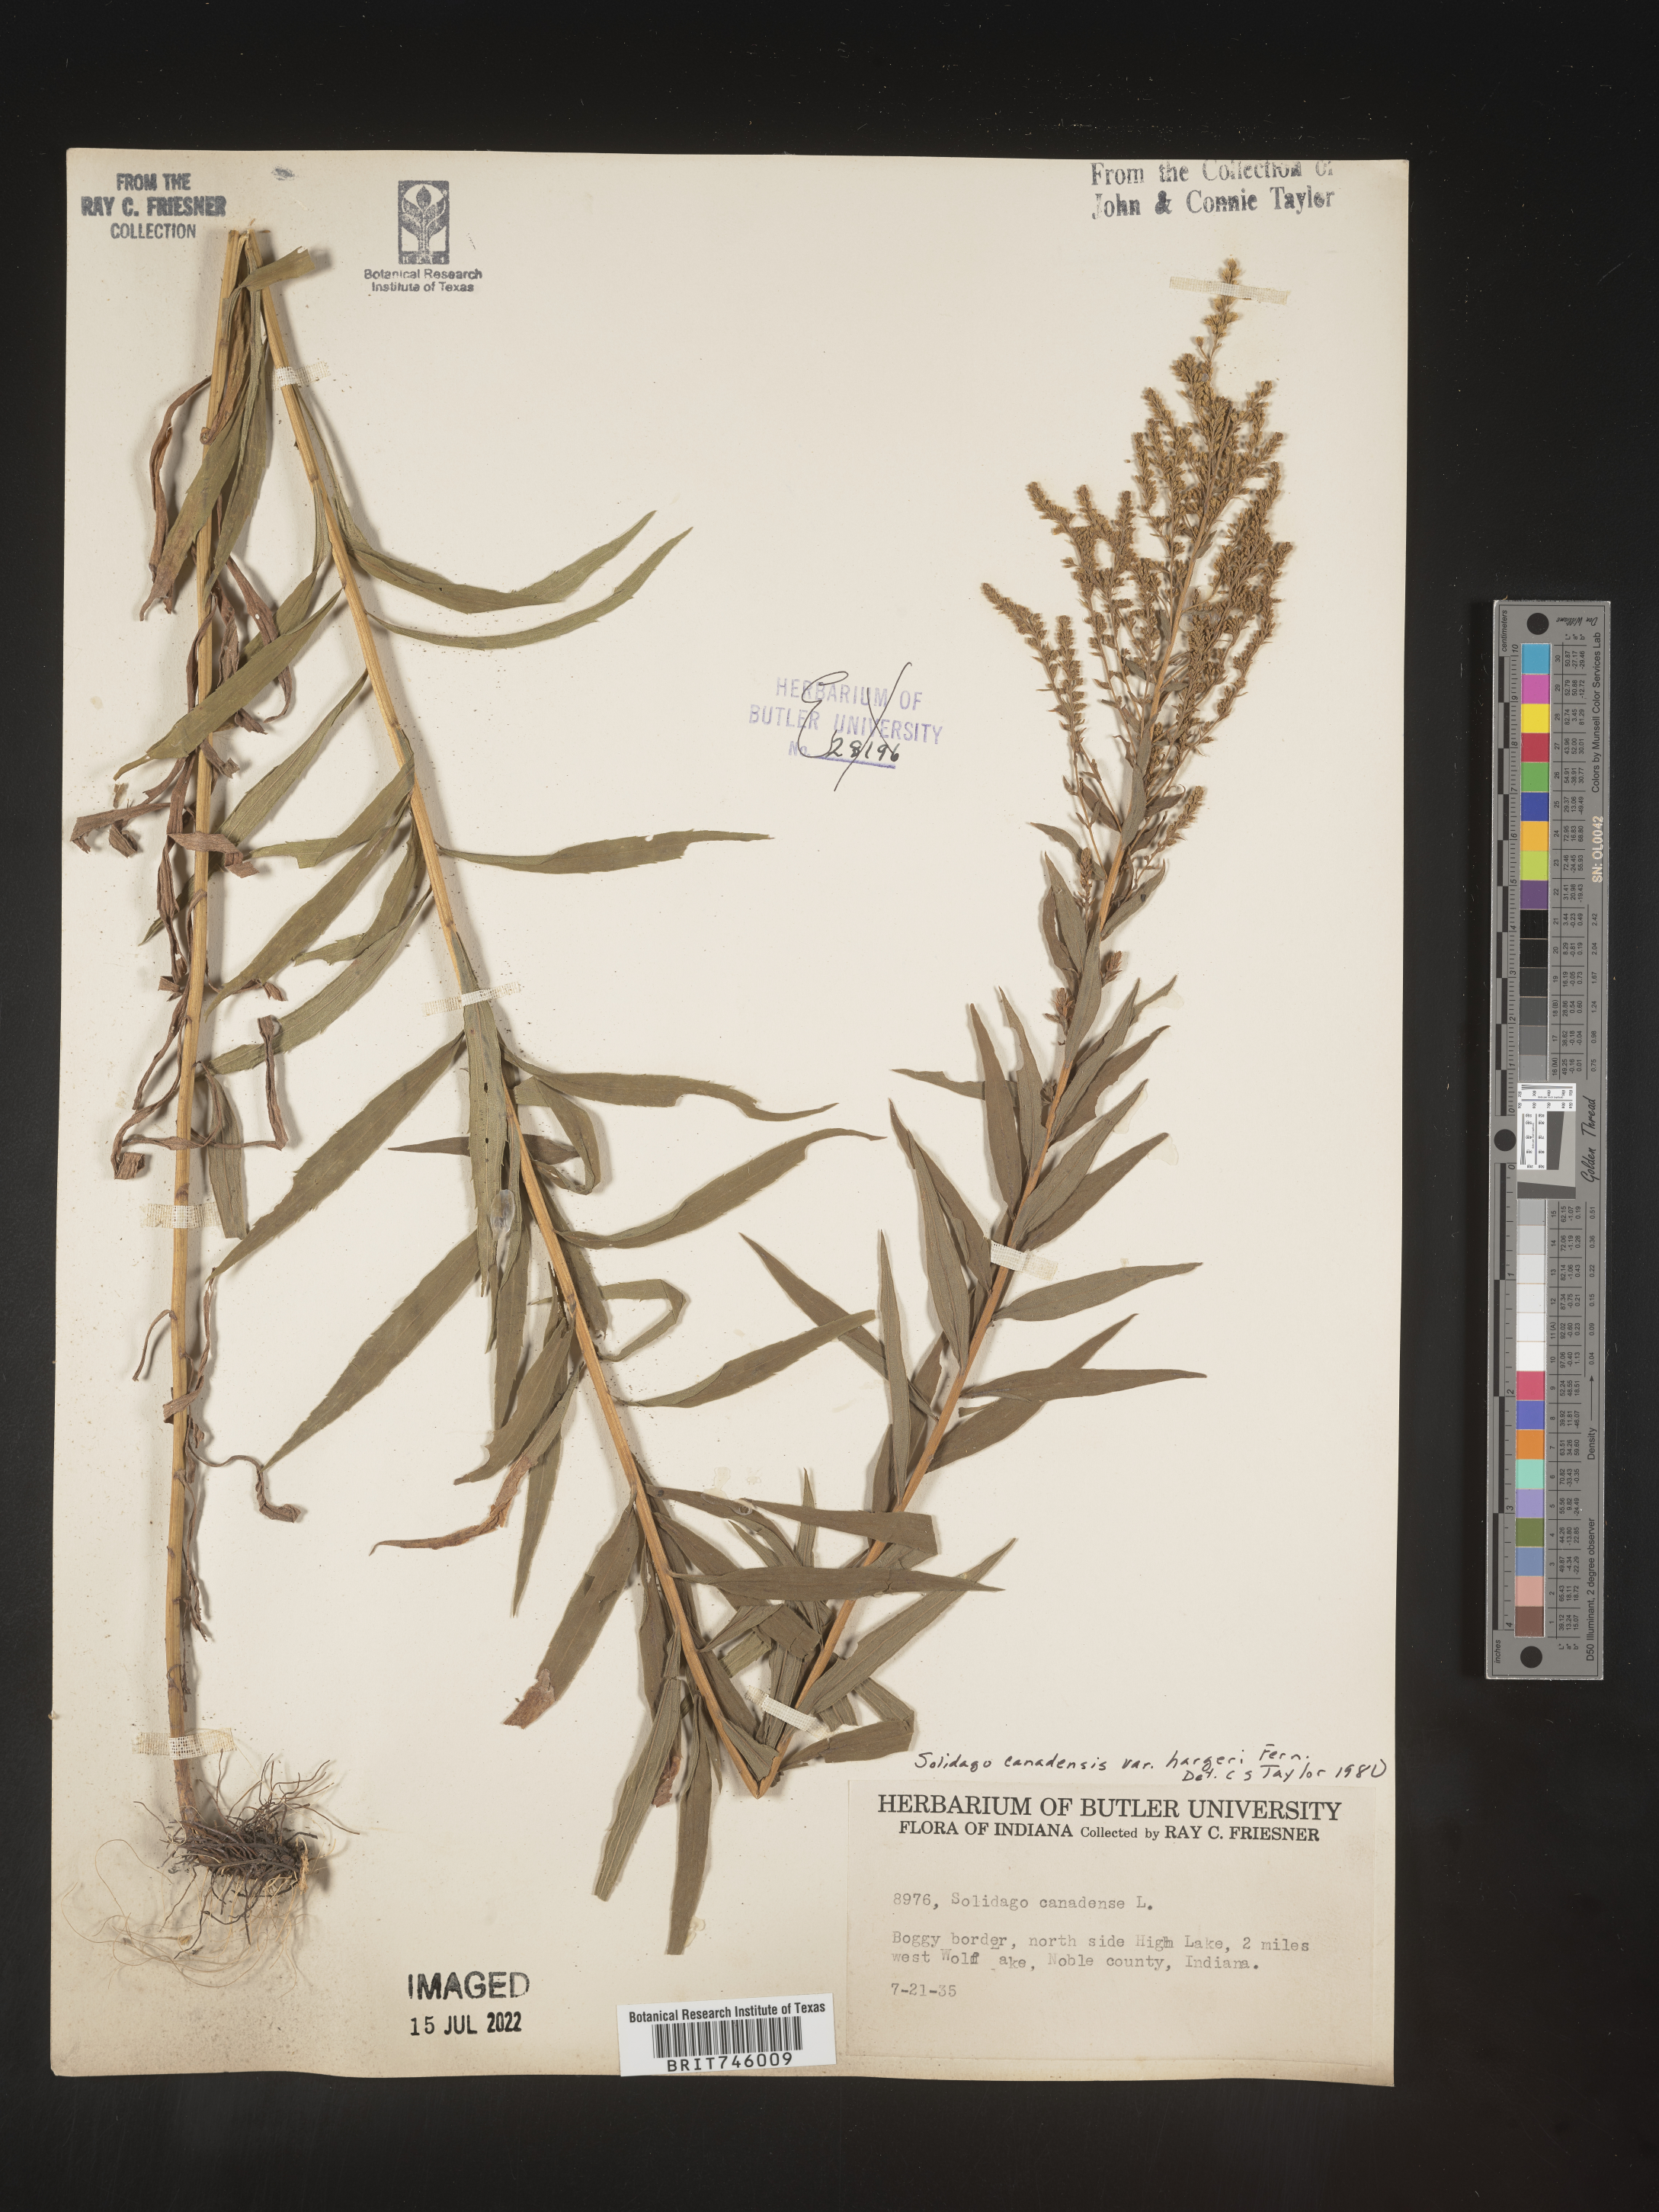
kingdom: Plantae
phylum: Tracheophyta
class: Magnoliopsida
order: Asterales
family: Asteraceae
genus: Solidago
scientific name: Solidago canadensis
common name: Canada goldenrod
